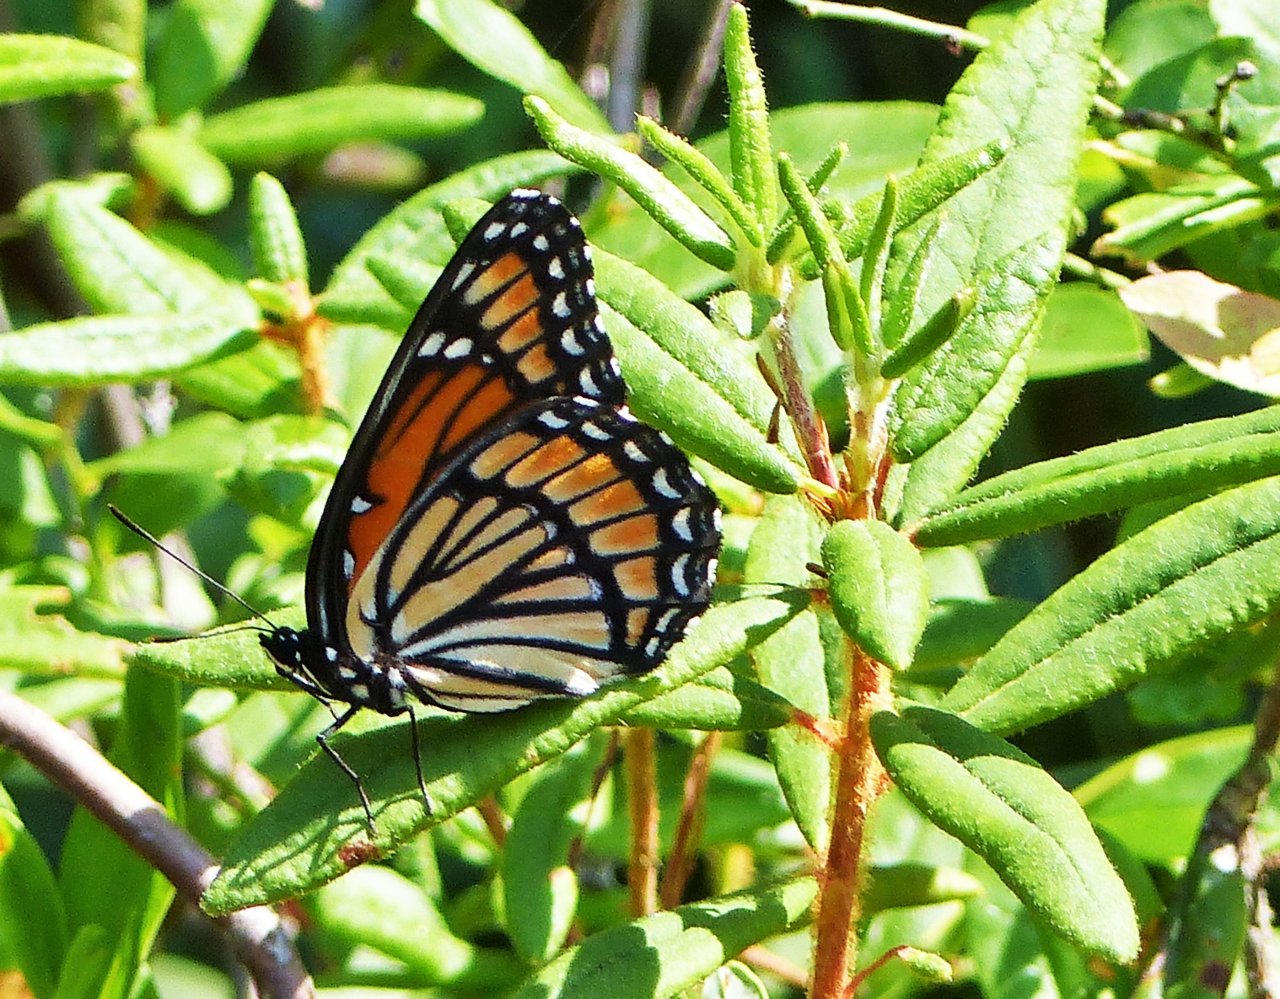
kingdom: Animalia
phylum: Arthropoda
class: Insecta
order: Lepidoptera
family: Nymphalidae
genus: Danaus
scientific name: Danaus plexippus
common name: Monarch
